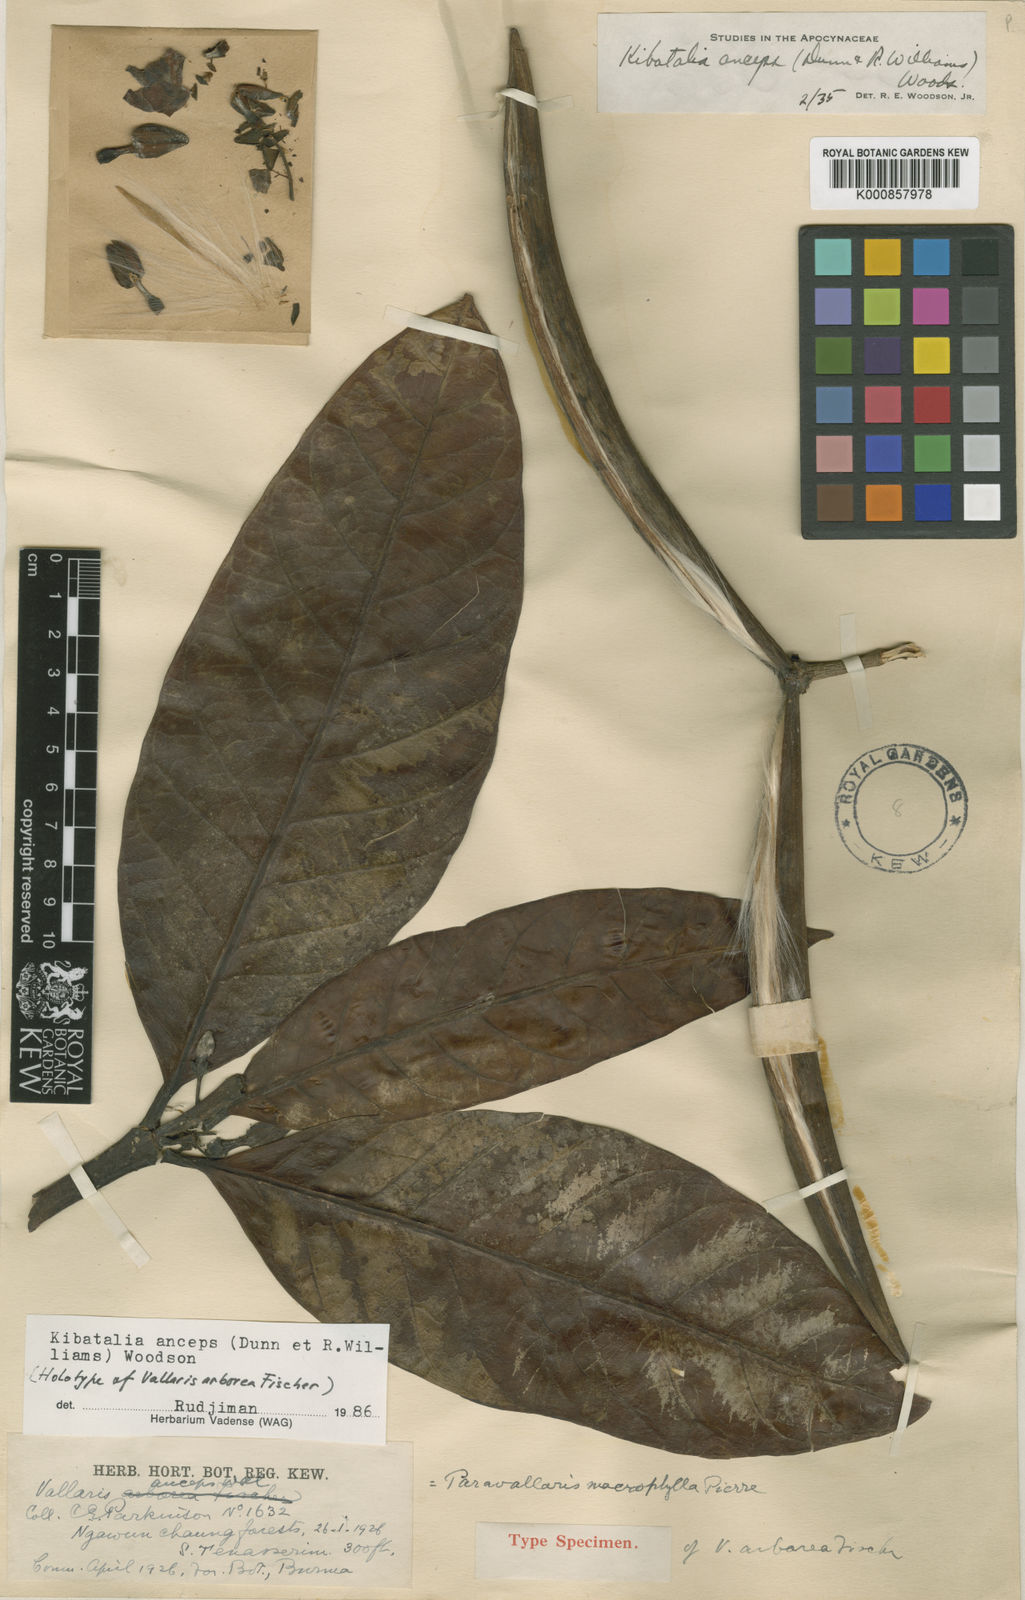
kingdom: Plantae
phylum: Tracheophyta
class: Magnoliopsida
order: Gentianales
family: Apocynaceae
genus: Kibatalia
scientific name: Kibatalia macrophylla
